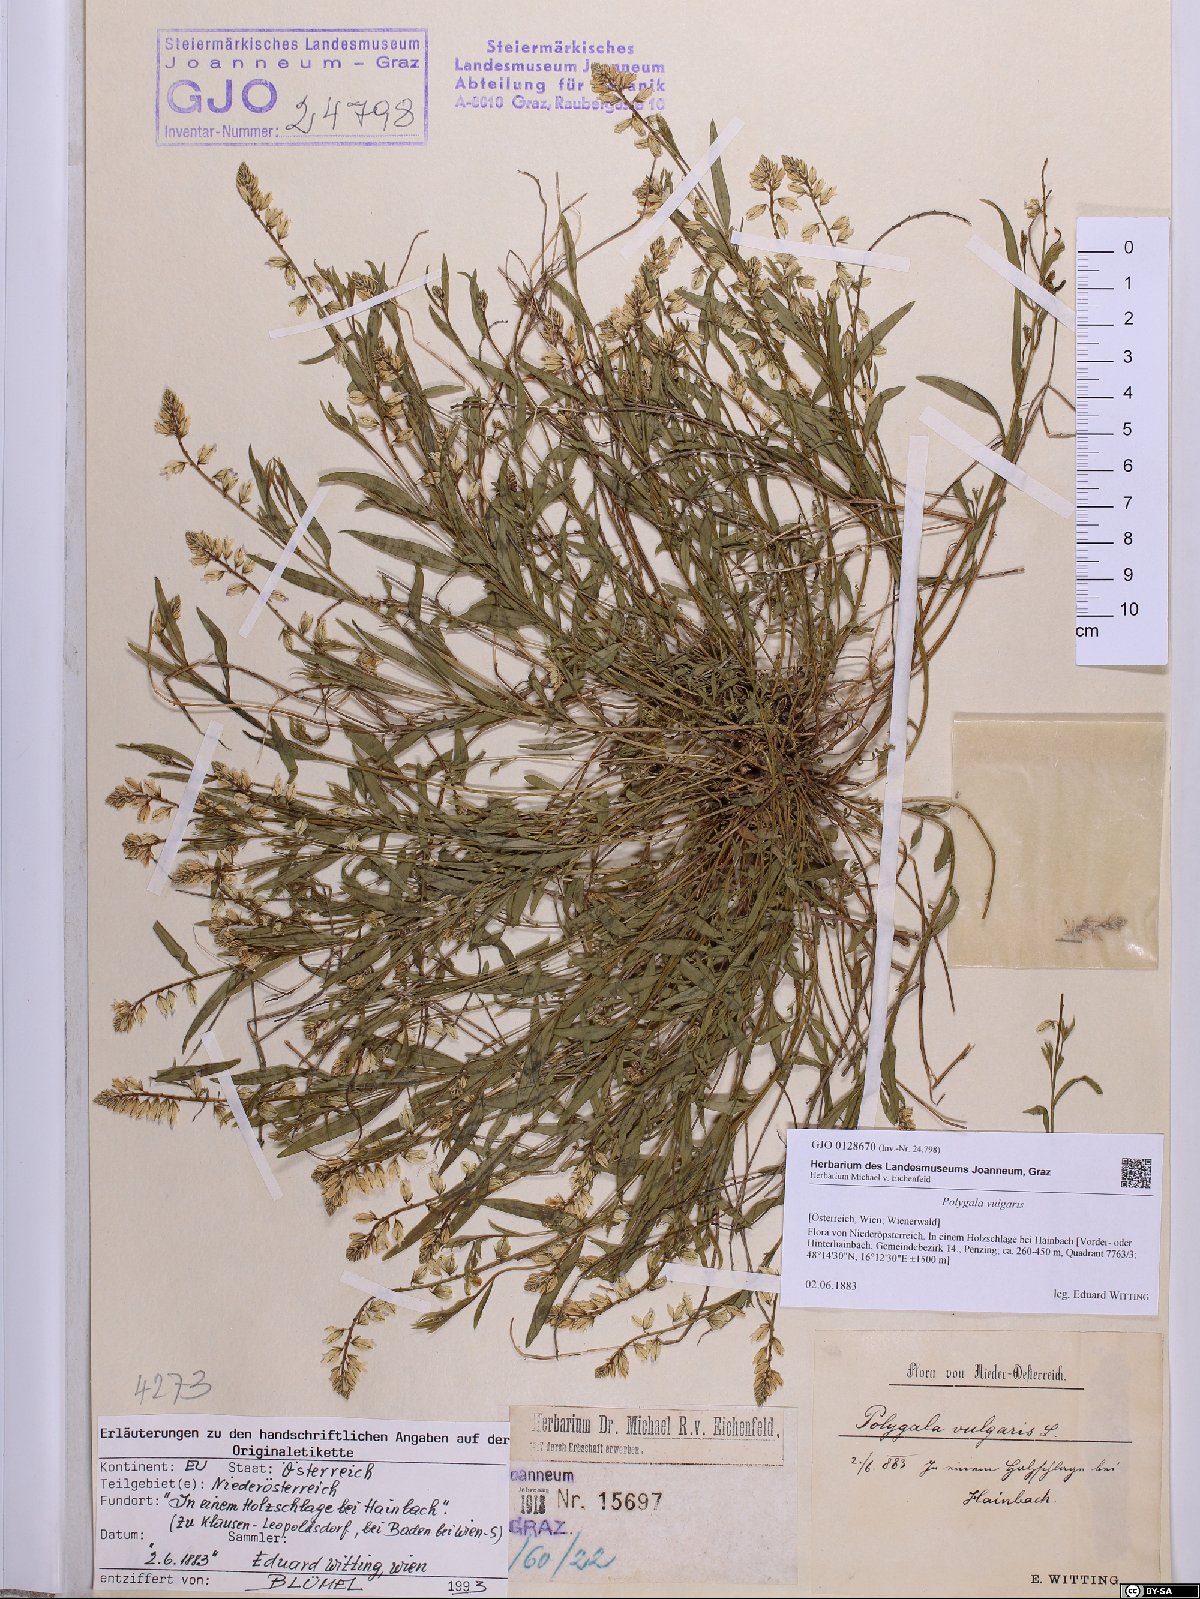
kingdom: Plantae
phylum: Tracheophyta
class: Magnoliopsida
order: Fabales
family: Polygalaceae
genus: Polygala
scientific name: Polygala vulgaris
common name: Common milkwort
